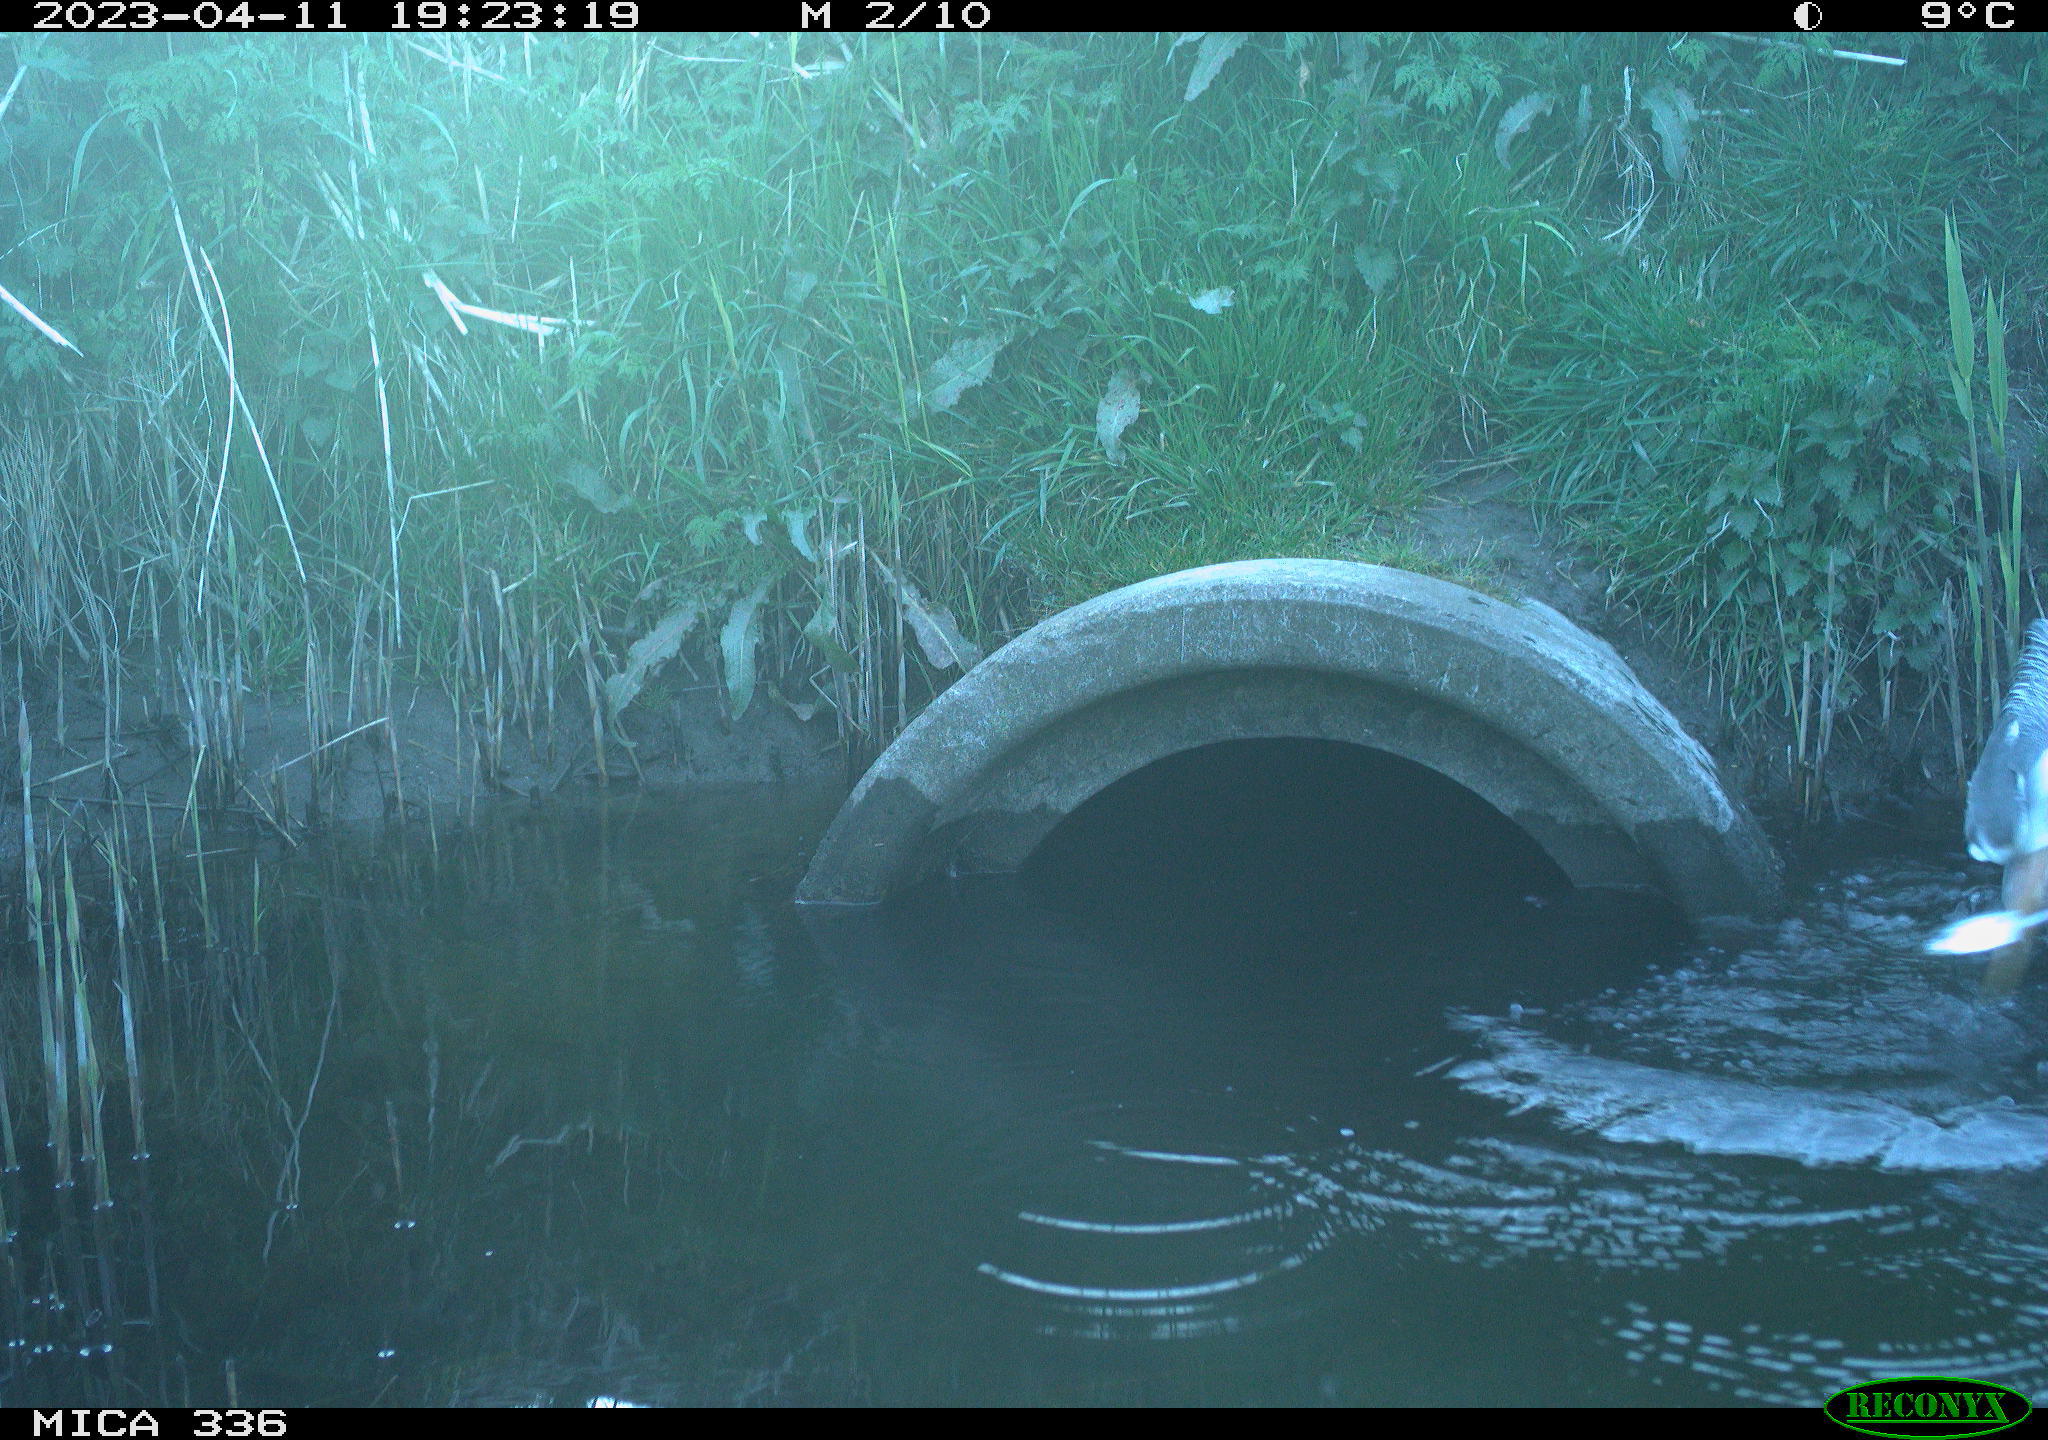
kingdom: Animalia
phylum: Chordata
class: Aves
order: Pelecaniformes
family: Ardeidae
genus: Ardea
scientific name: Ardea cinerea
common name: Grey heron
